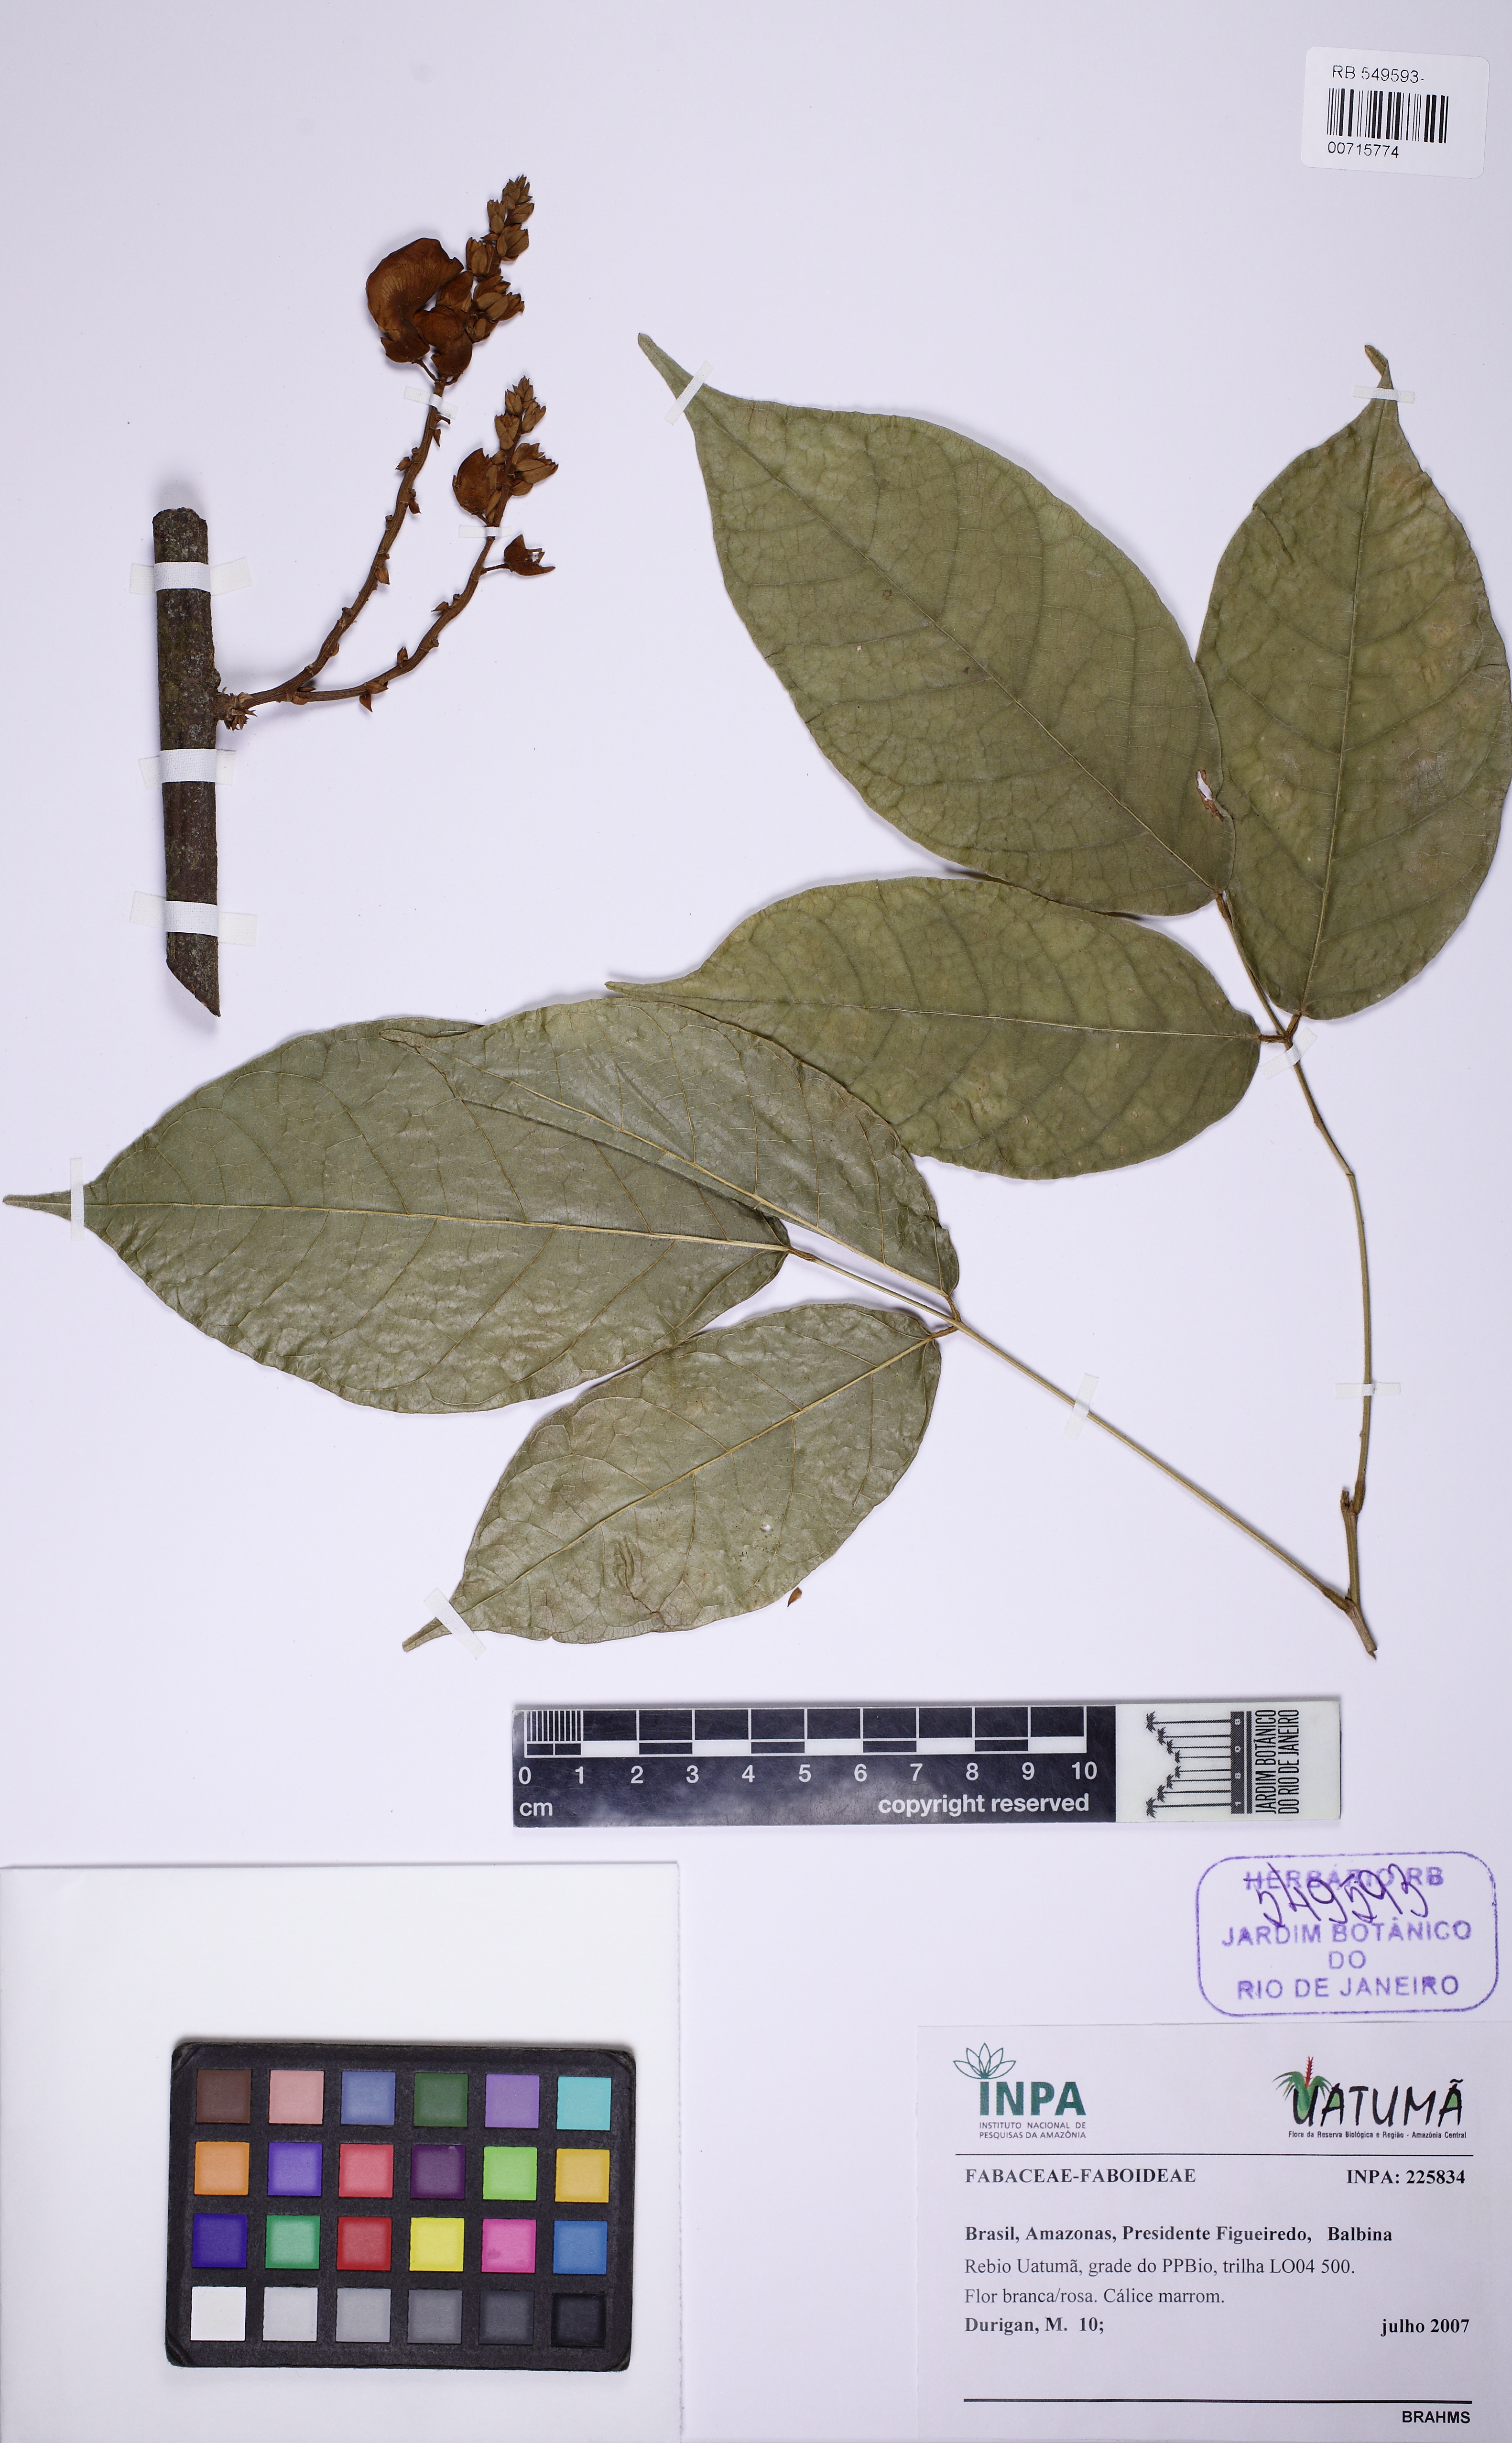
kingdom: Plantae
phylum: Tracheophyta
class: Magnoliopsida
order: Fabales
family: Fabaceae
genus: Centrosema
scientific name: Centrosema
